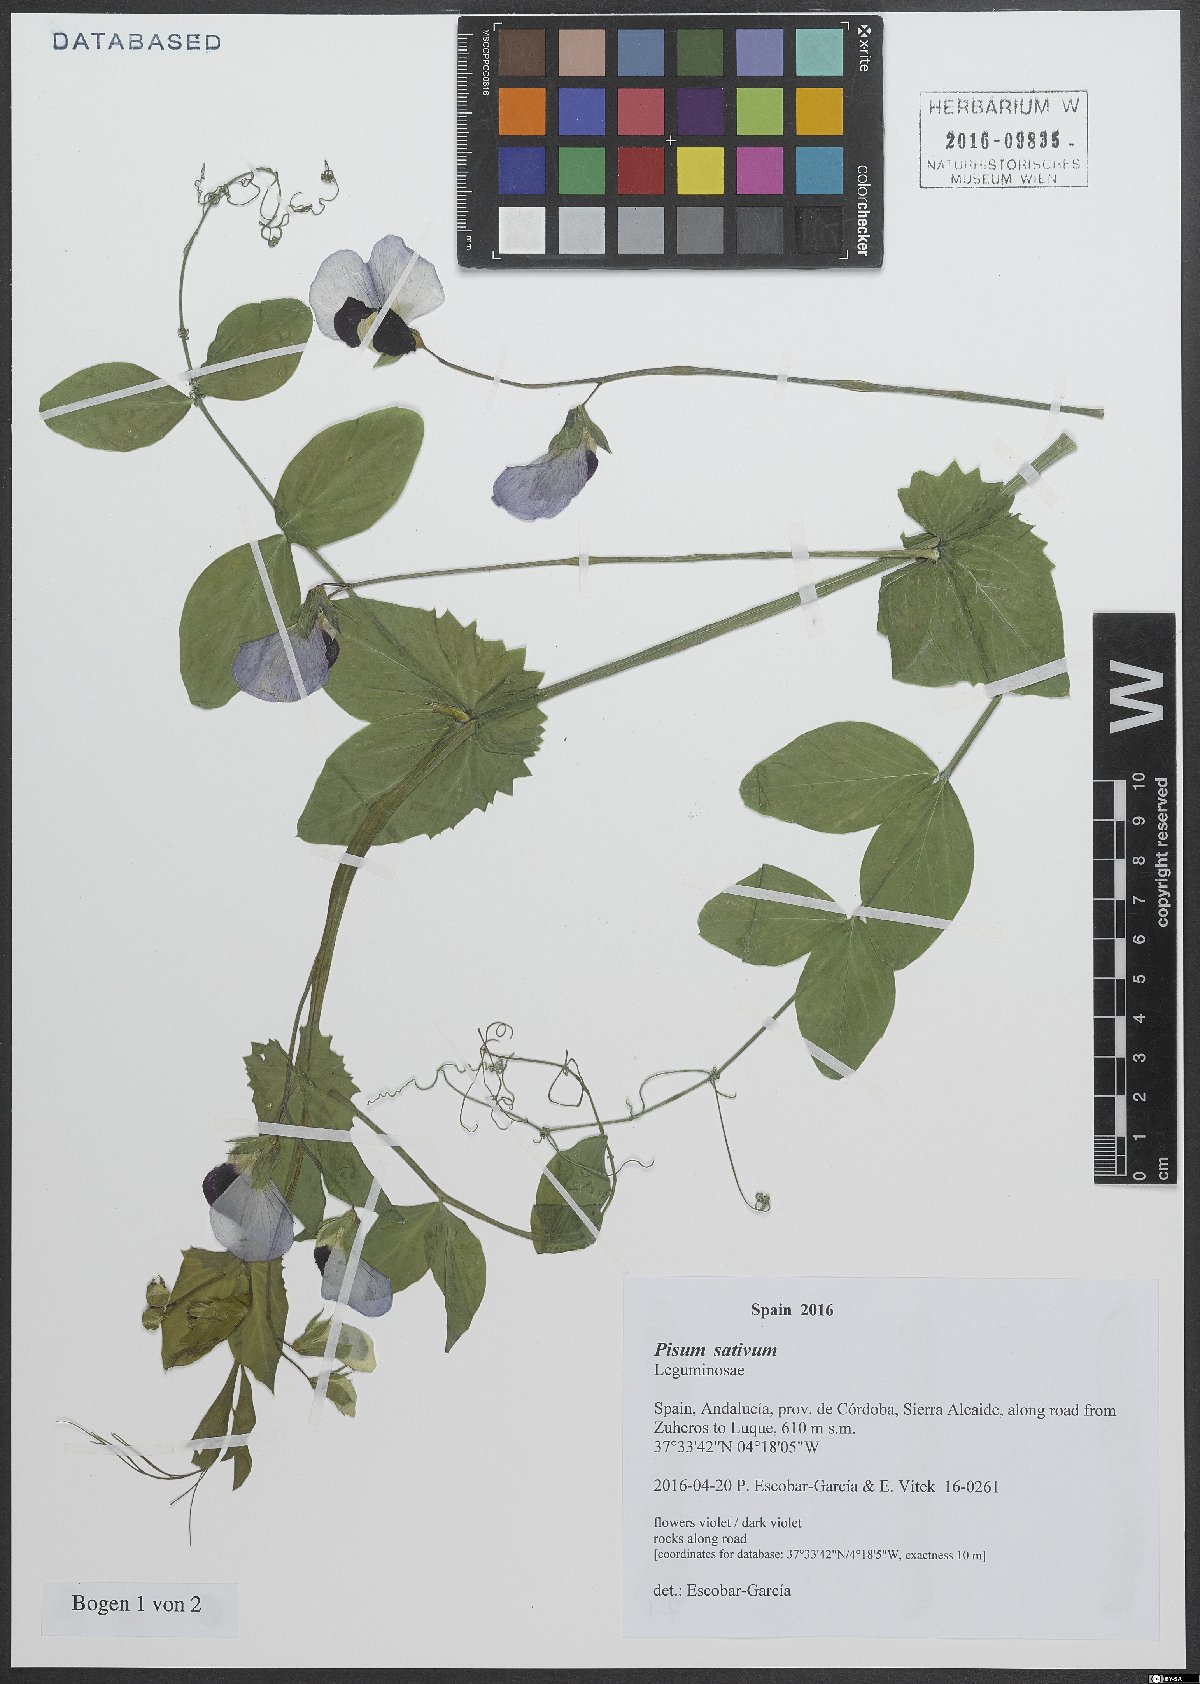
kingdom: Plantae
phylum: Tracheophyta
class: Magnoliopsida
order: Fabales
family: Fabaceae
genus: Lathyrus
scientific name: Lathyrus oleraceus
